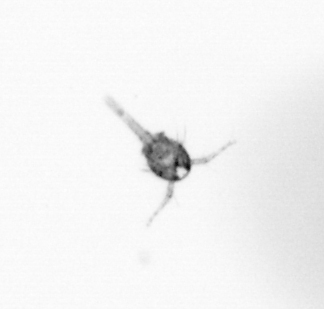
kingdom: Animalia
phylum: Arthropoda
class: Copepoda
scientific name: Copepoda
